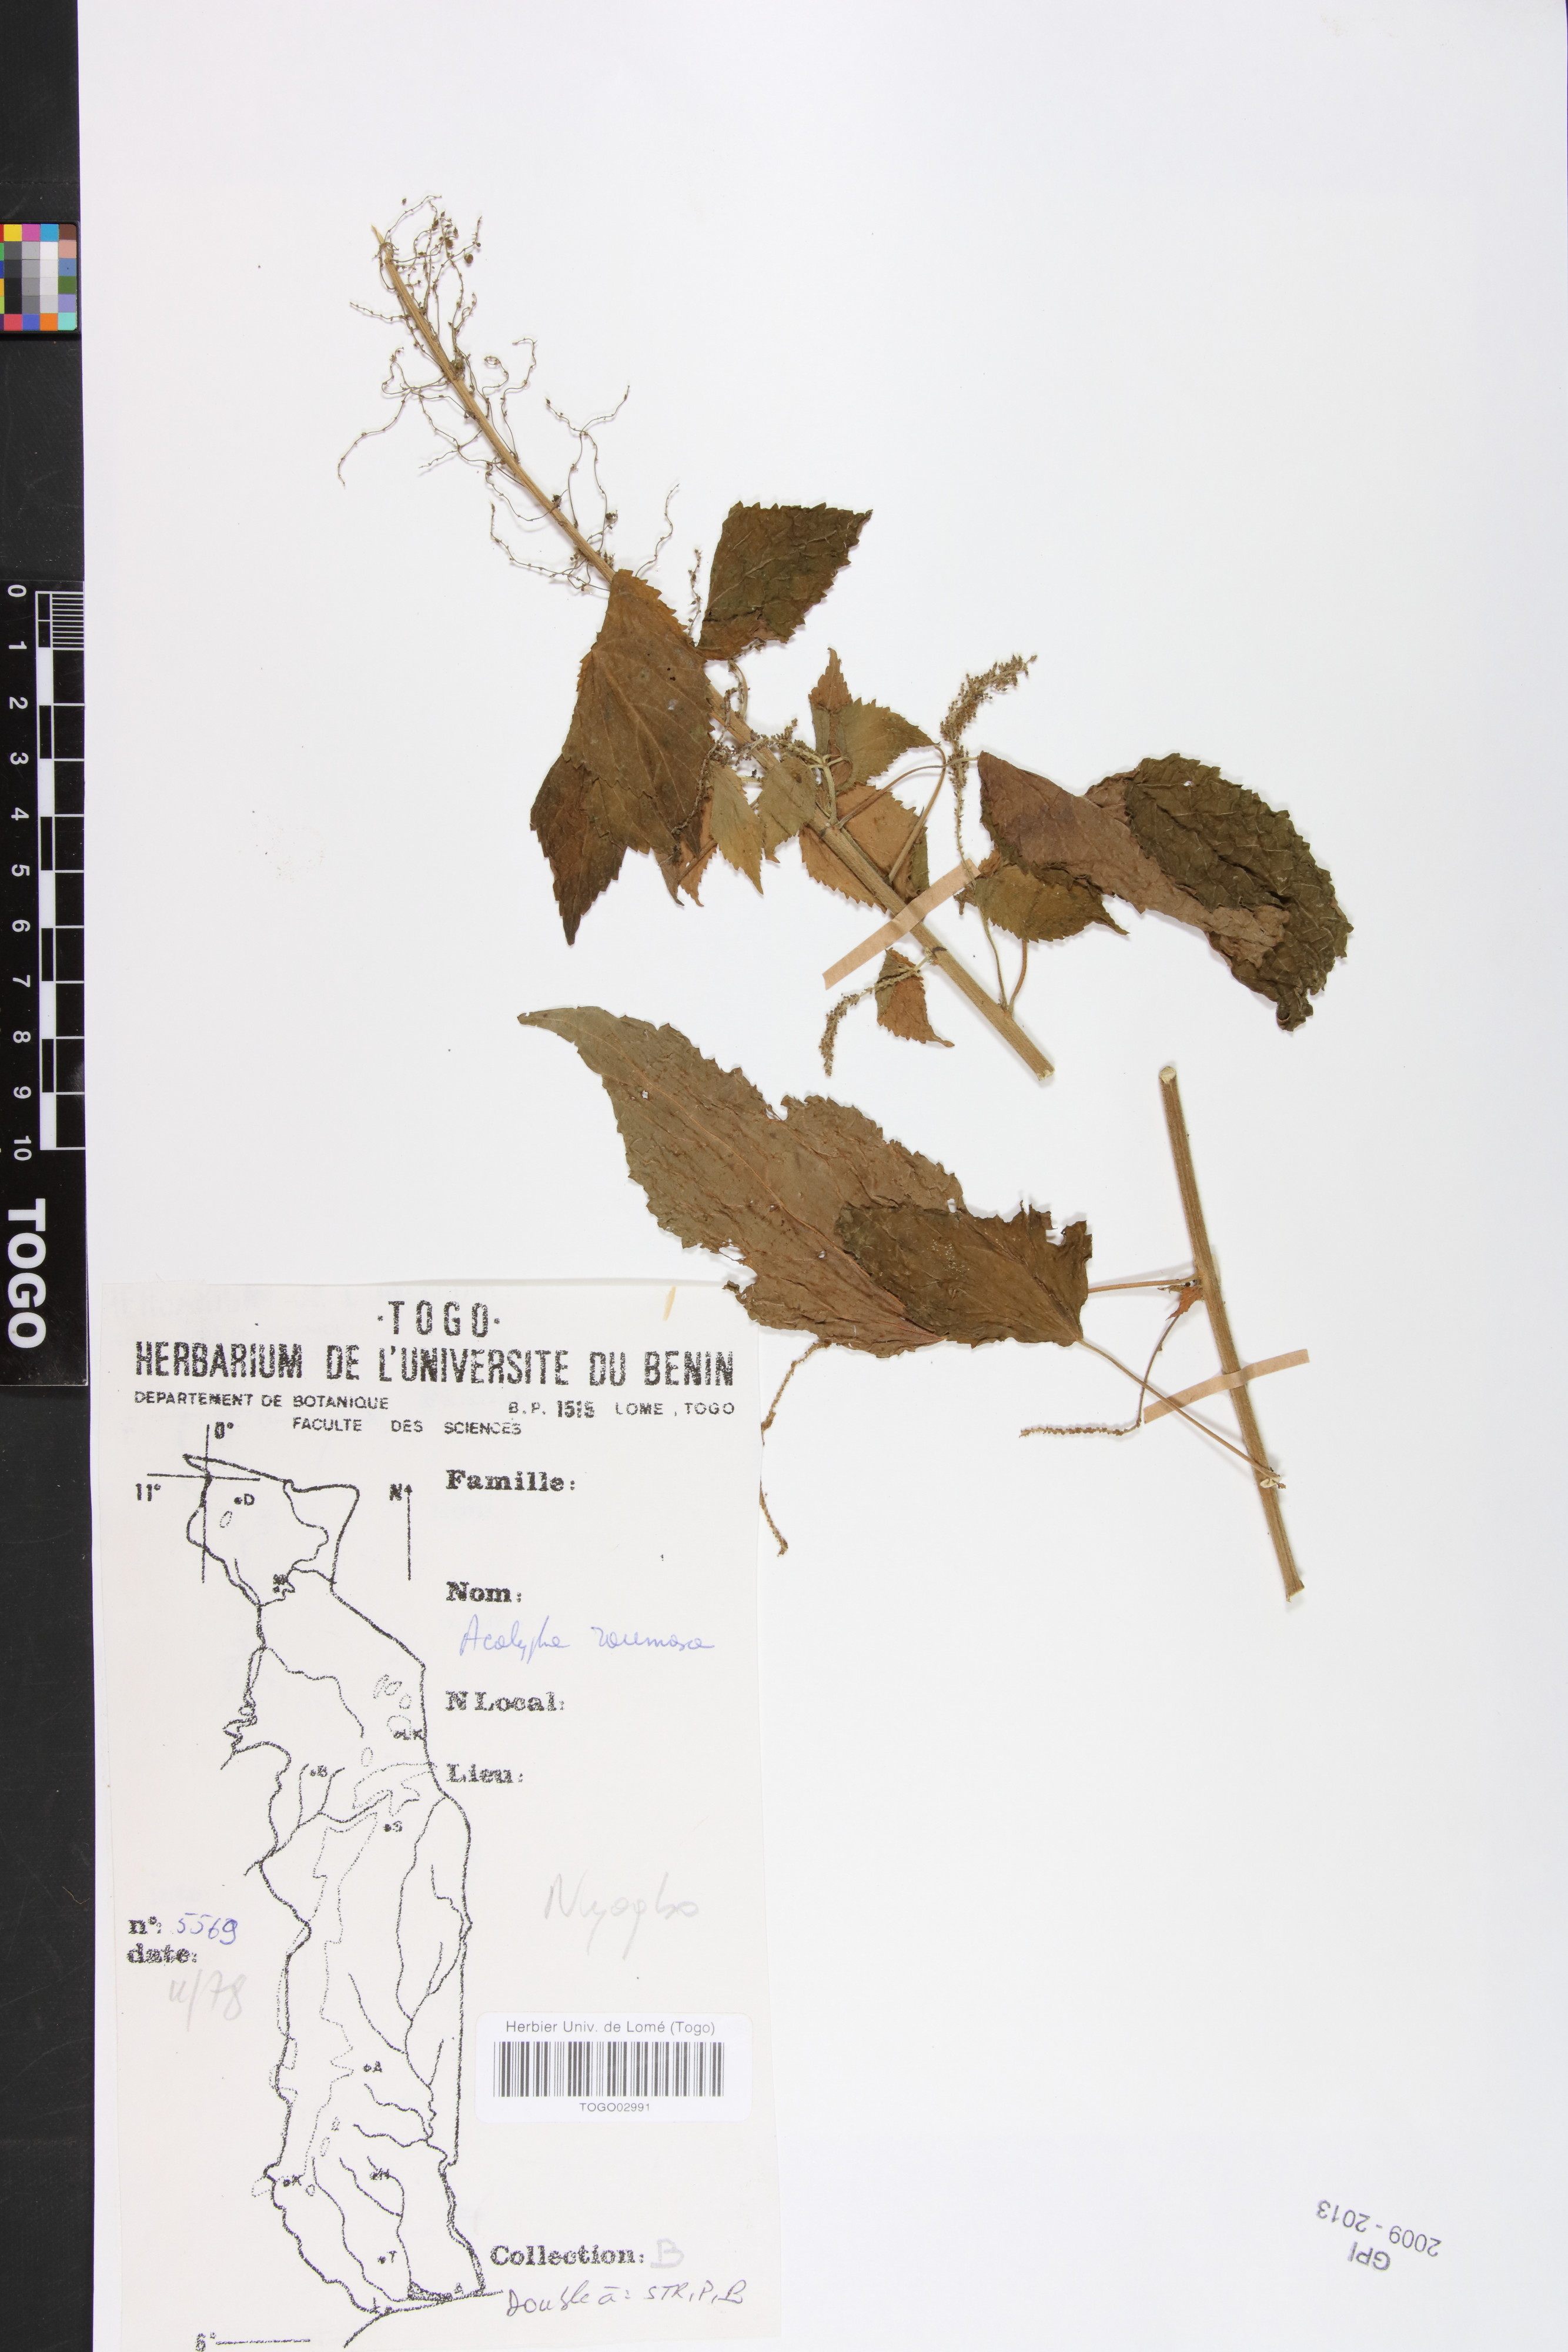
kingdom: Plantae
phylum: Tracheophyta
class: Magnoliopsida
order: Malpighiales
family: Euphorbiaceae
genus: Acalypha
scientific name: Acalypha paniculata
